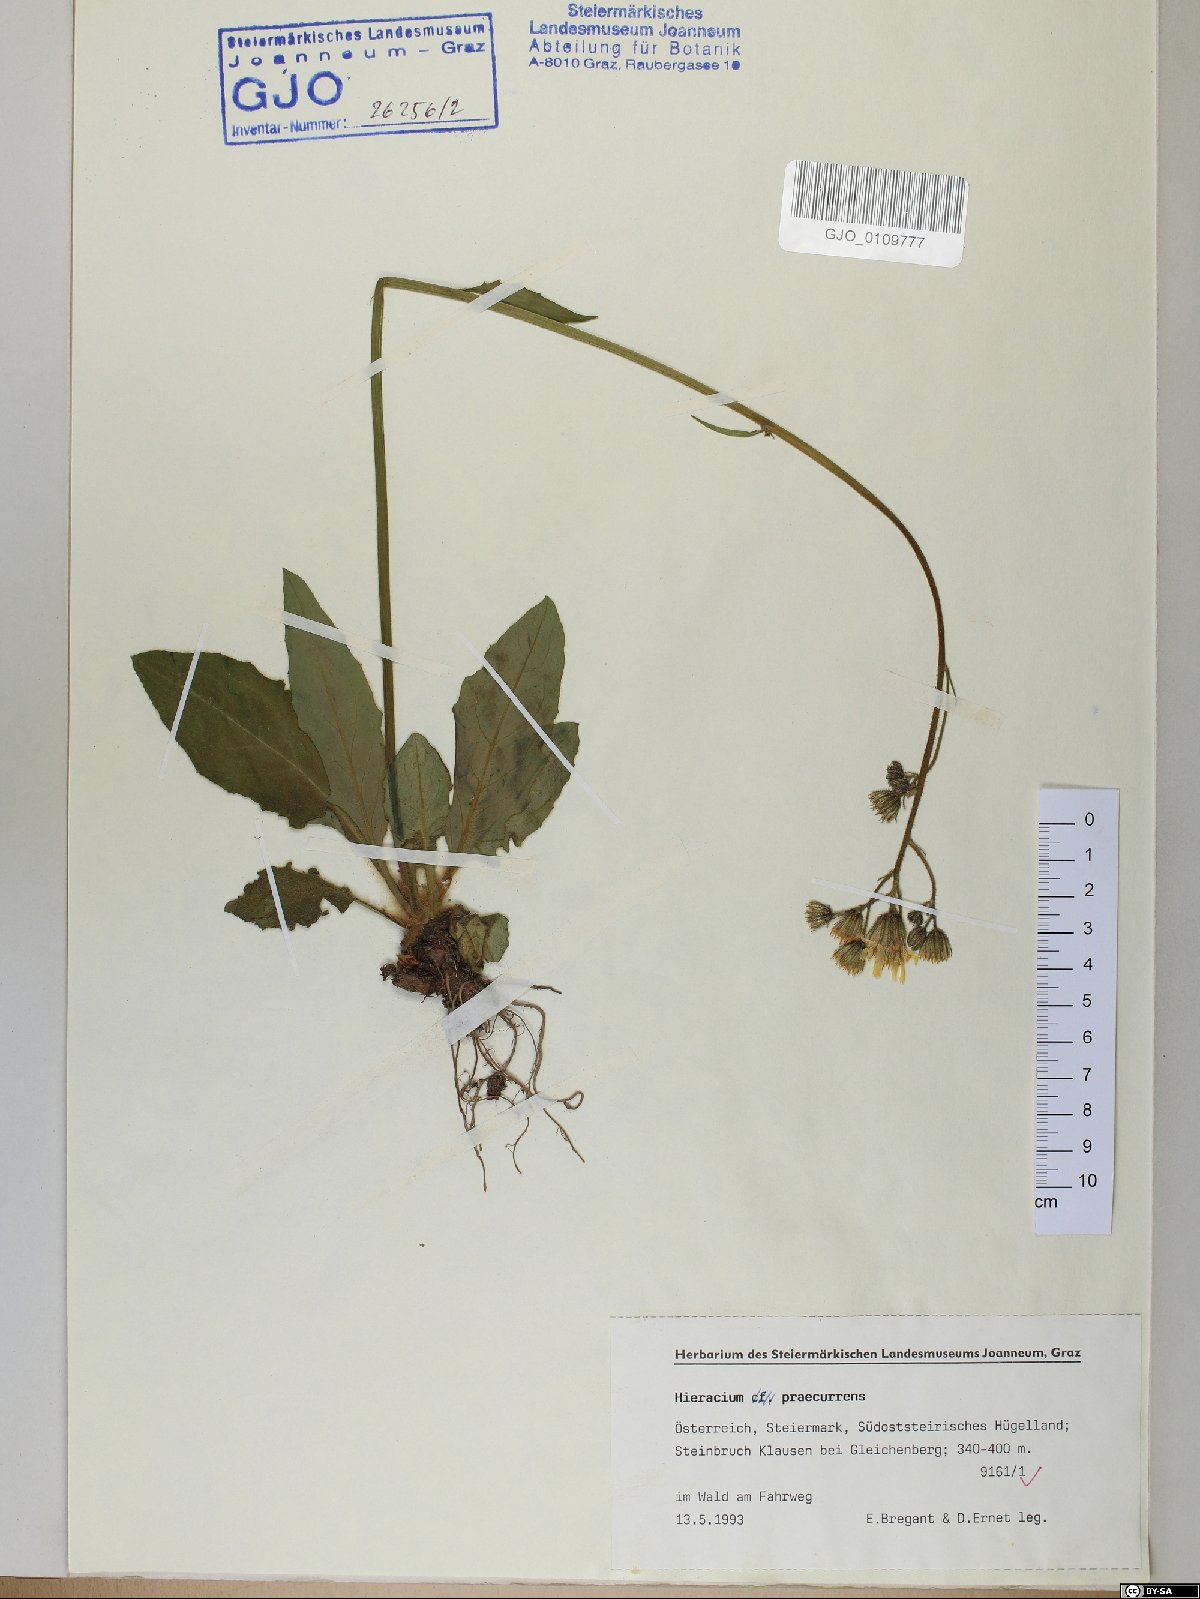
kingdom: Plantae
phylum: Tracheophyta
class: Magnoliopsida
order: Asterales
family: Asteraceae
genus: Hieracium
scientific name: Hieracium rotundatum
